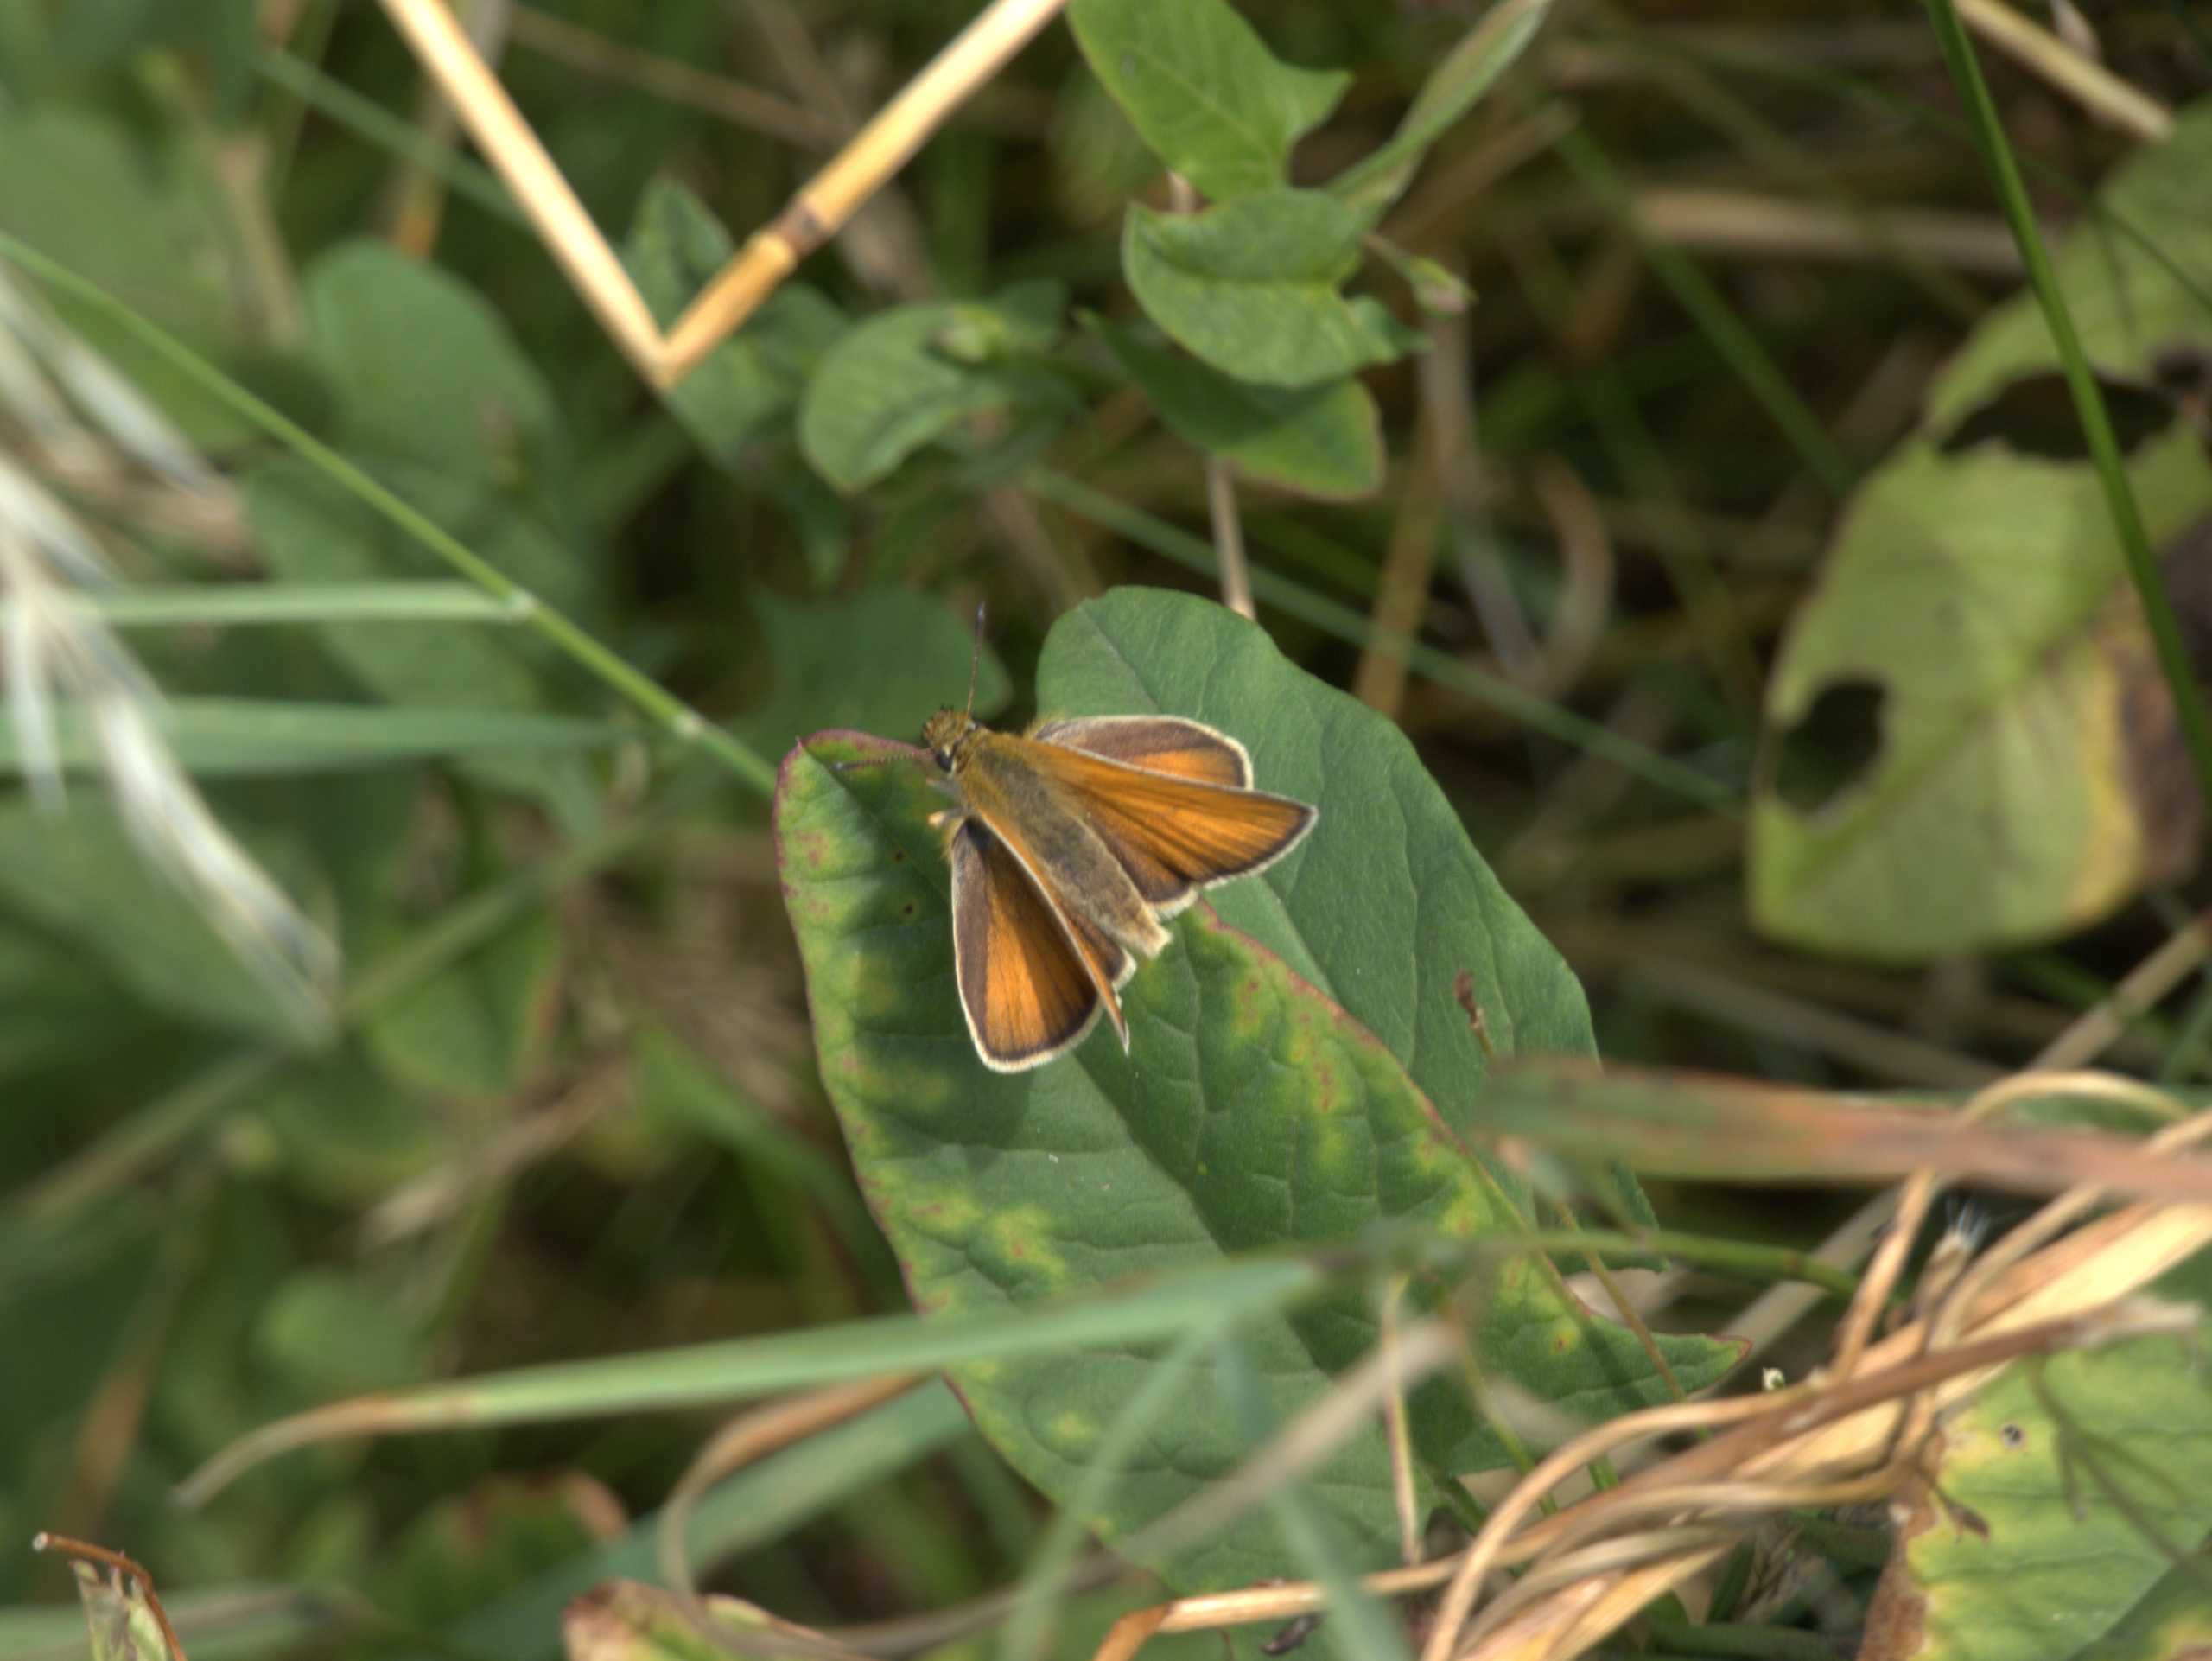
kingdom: Animalia
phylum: Arthropoda
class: Insecta
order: Lepidoptera
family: Hesperiidae
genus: Thymelicus
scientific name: Thymelicus lineola
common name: Stregbredpande
